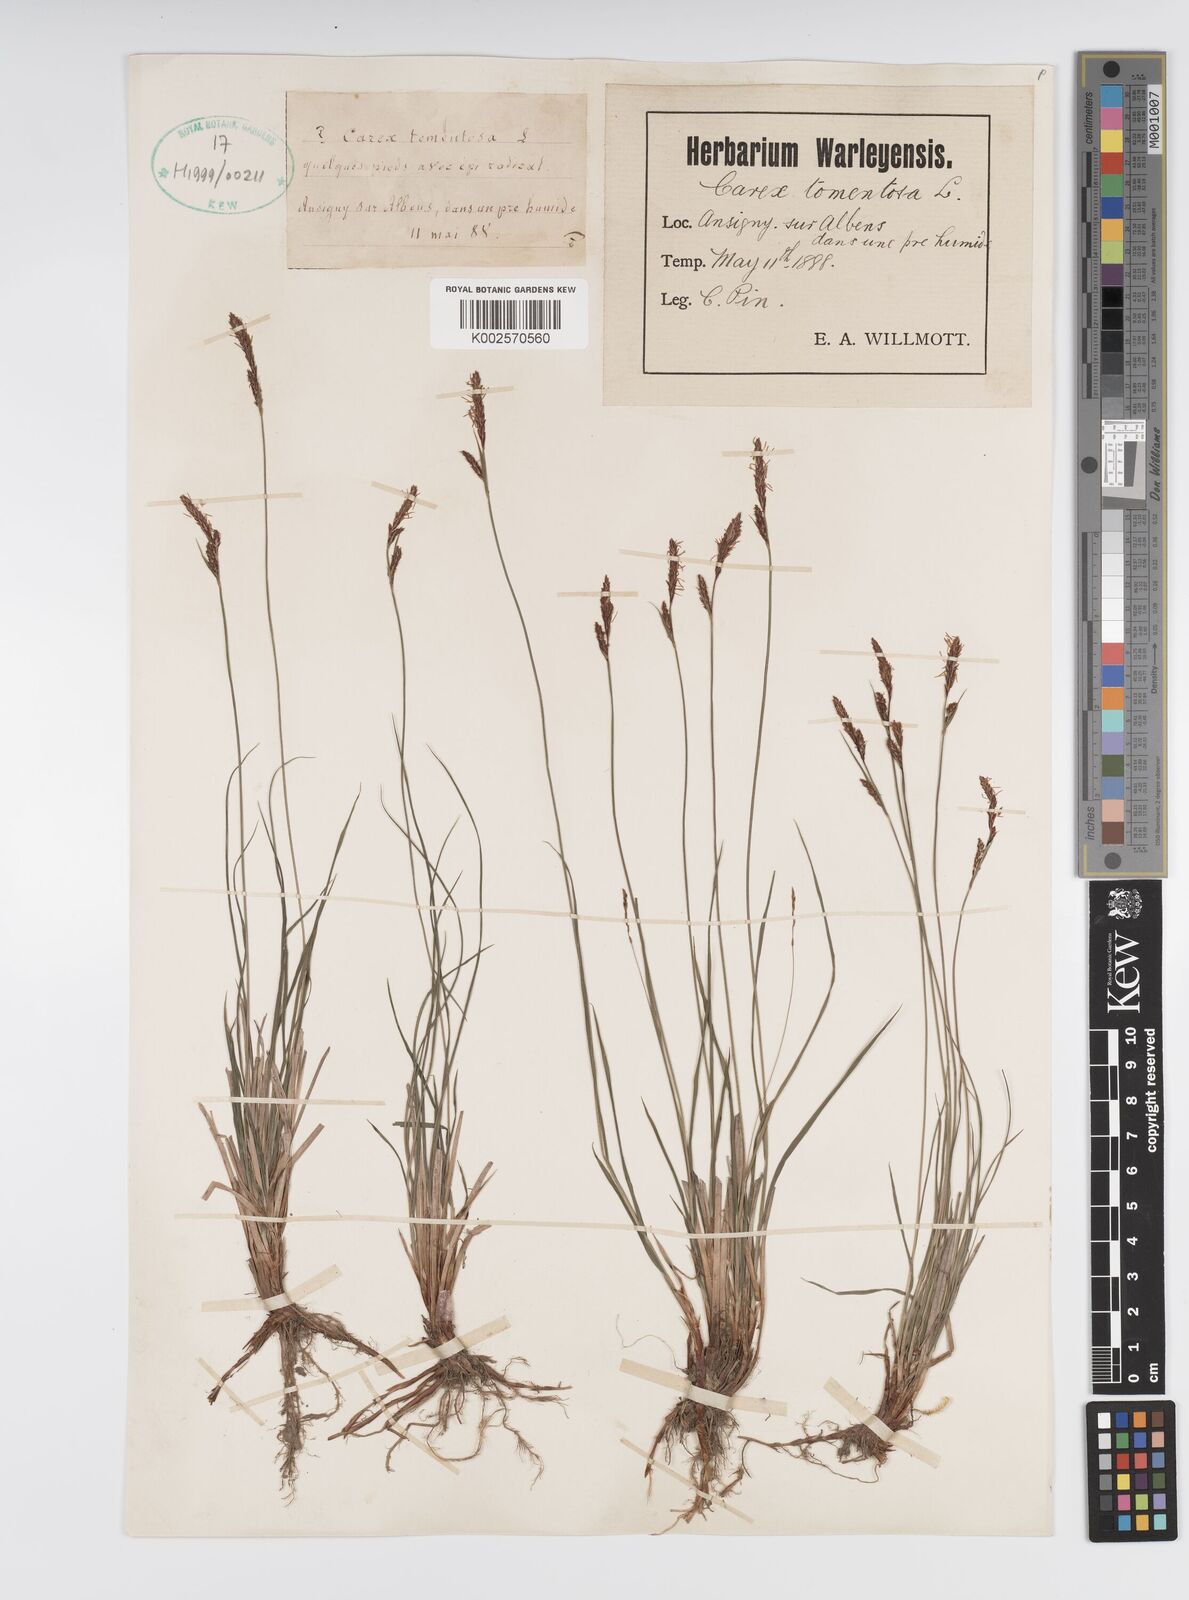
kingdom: Plantae
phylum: Tracheophyta
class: Liliopsida
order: Poales
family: Cyperaceae
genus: Carex
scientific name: Carex montana
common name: Soft-leaved sedge
